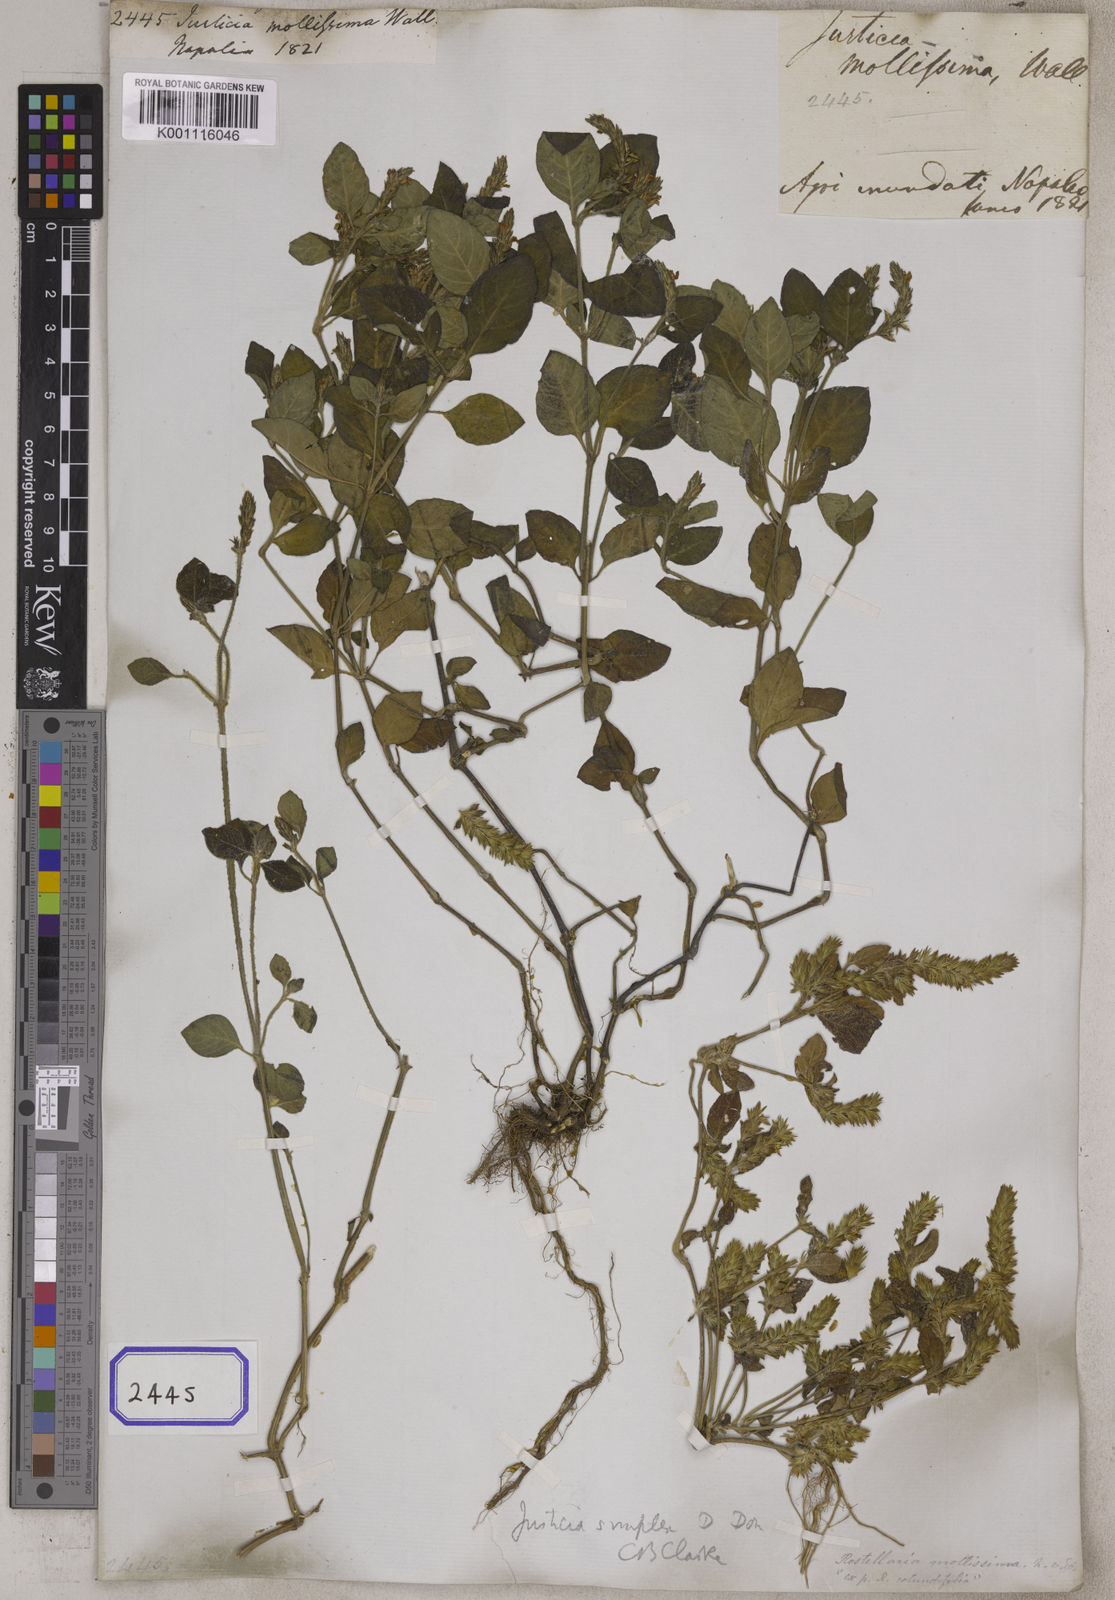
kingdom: Plantae
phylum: Tracheophyta
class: Magnoliopsida
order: Lamiales
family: Acanthaceae
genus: Rostellularia
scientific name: Rostellularia mollissima
